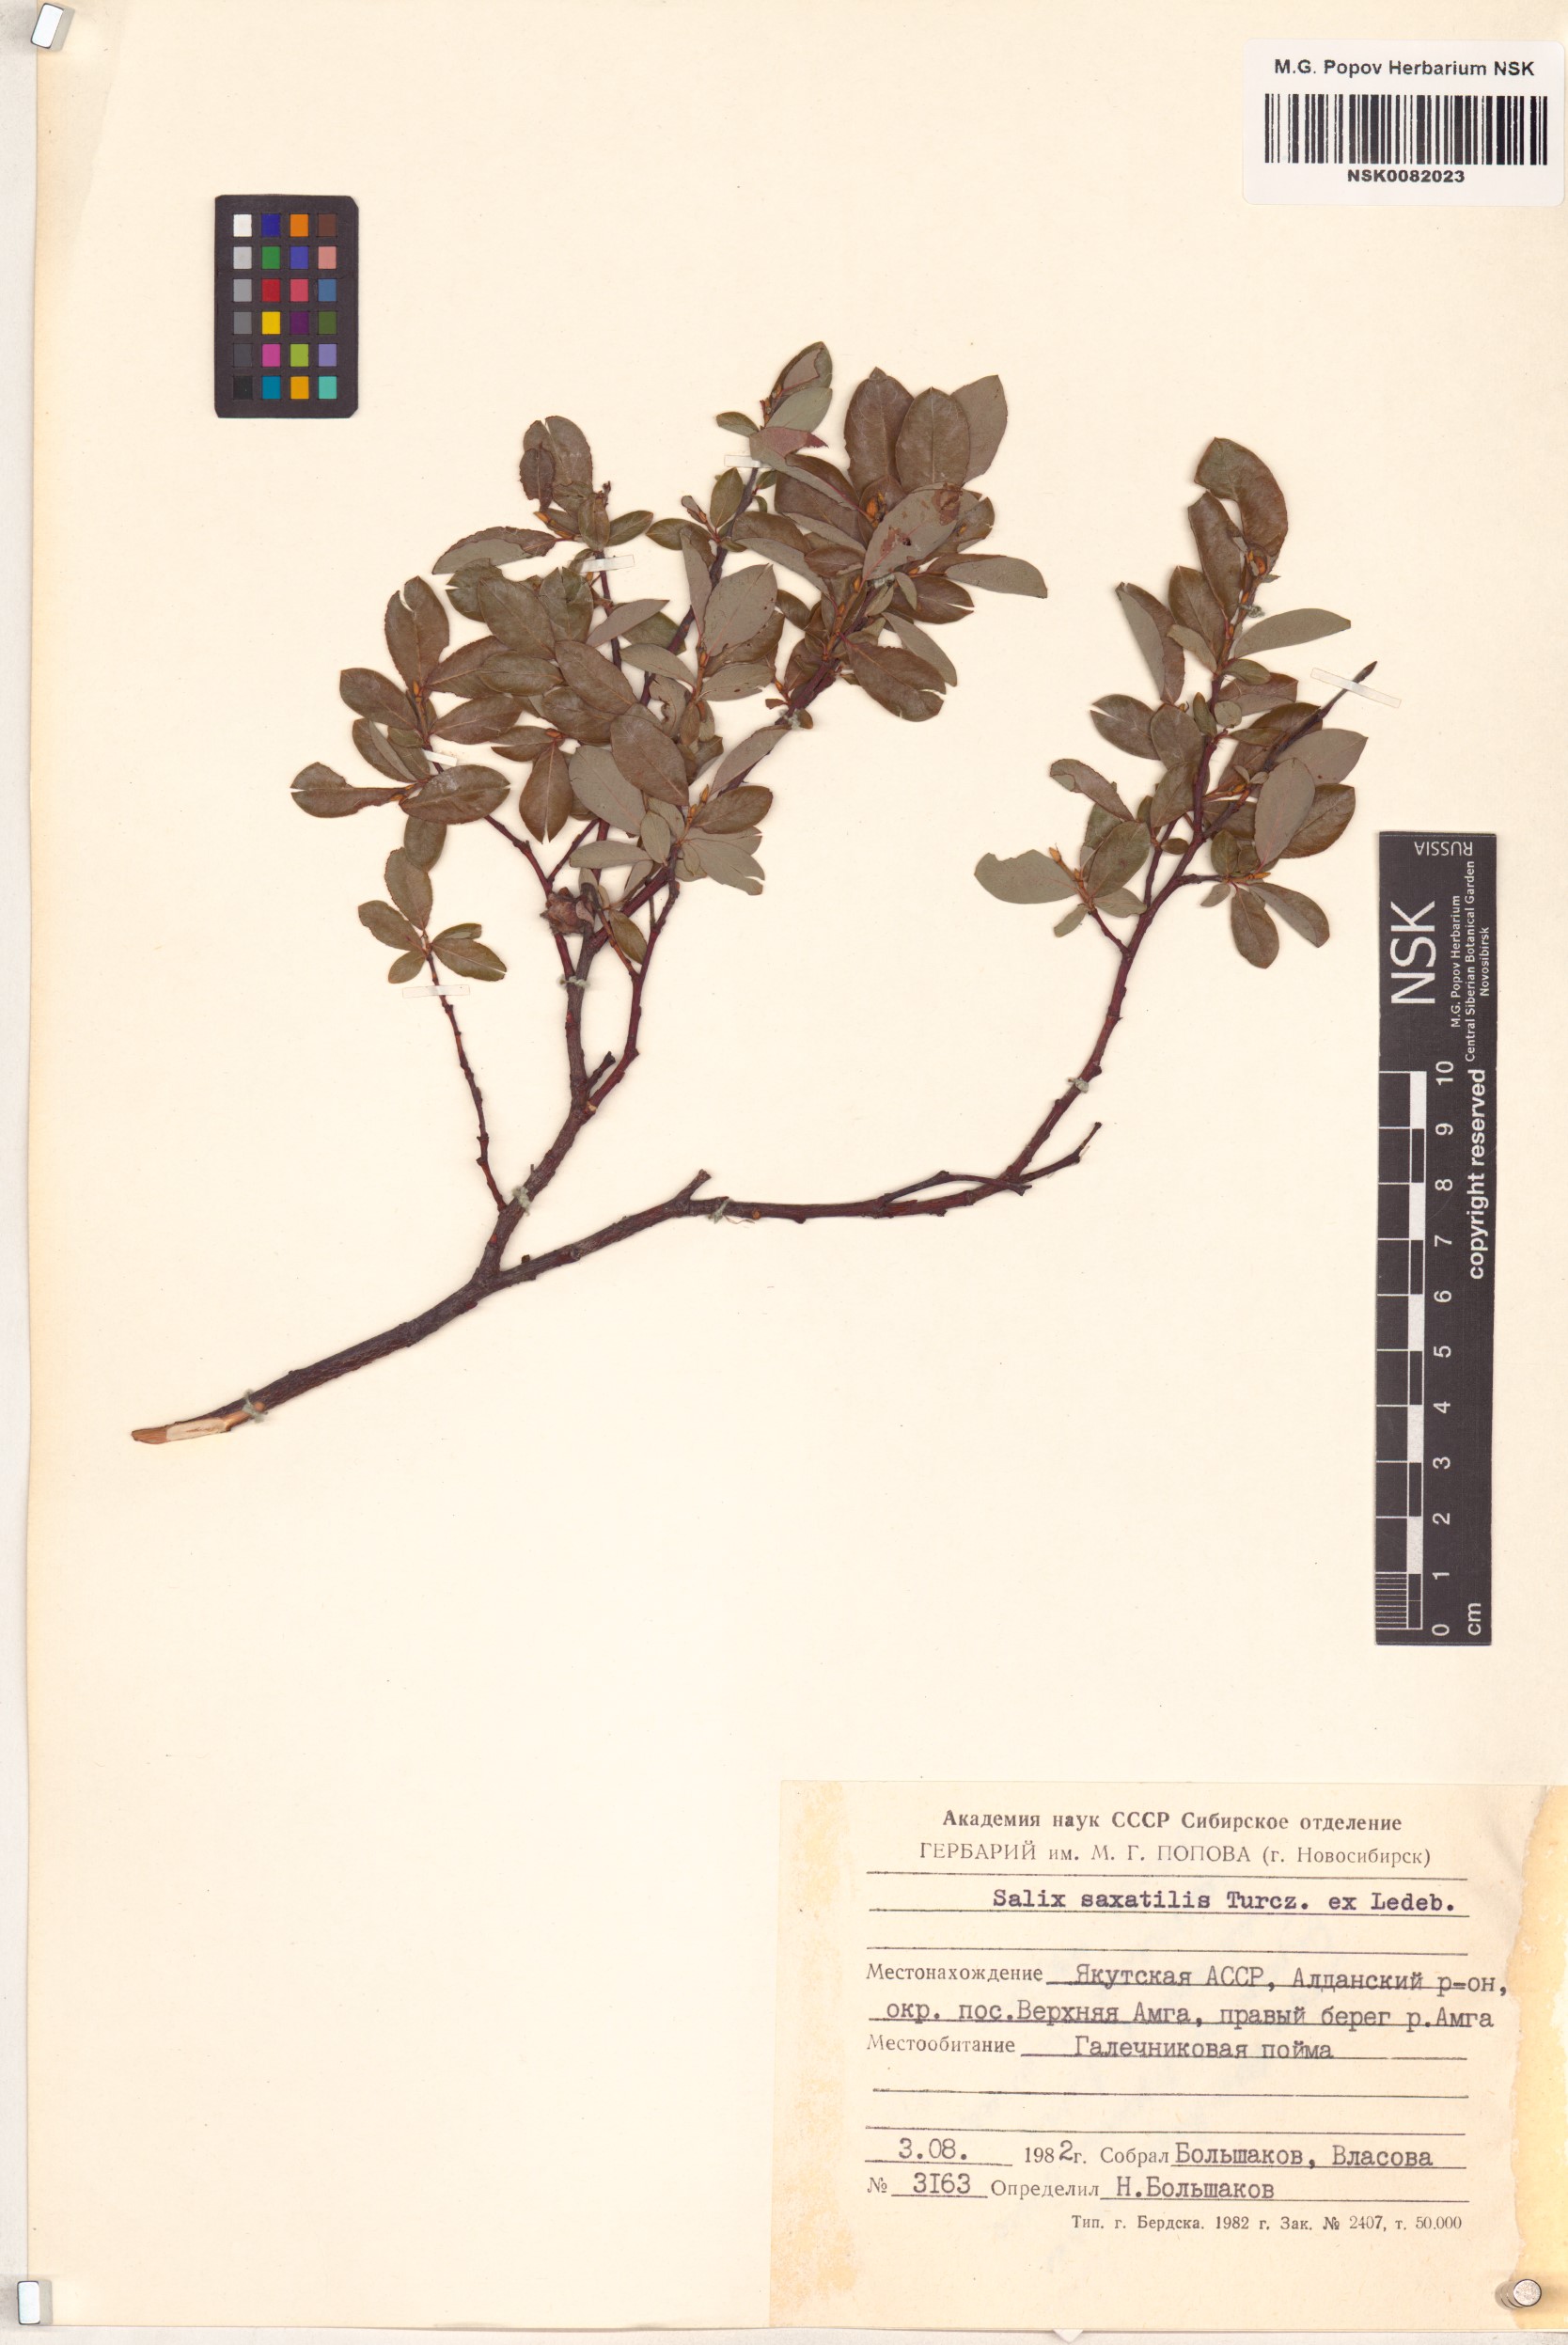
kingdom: Plantae
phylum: Tracheophyta
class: Magnoliopsida
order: Malpighiales
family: Salicaceae
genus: Salix
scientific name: Salix saxatilis
